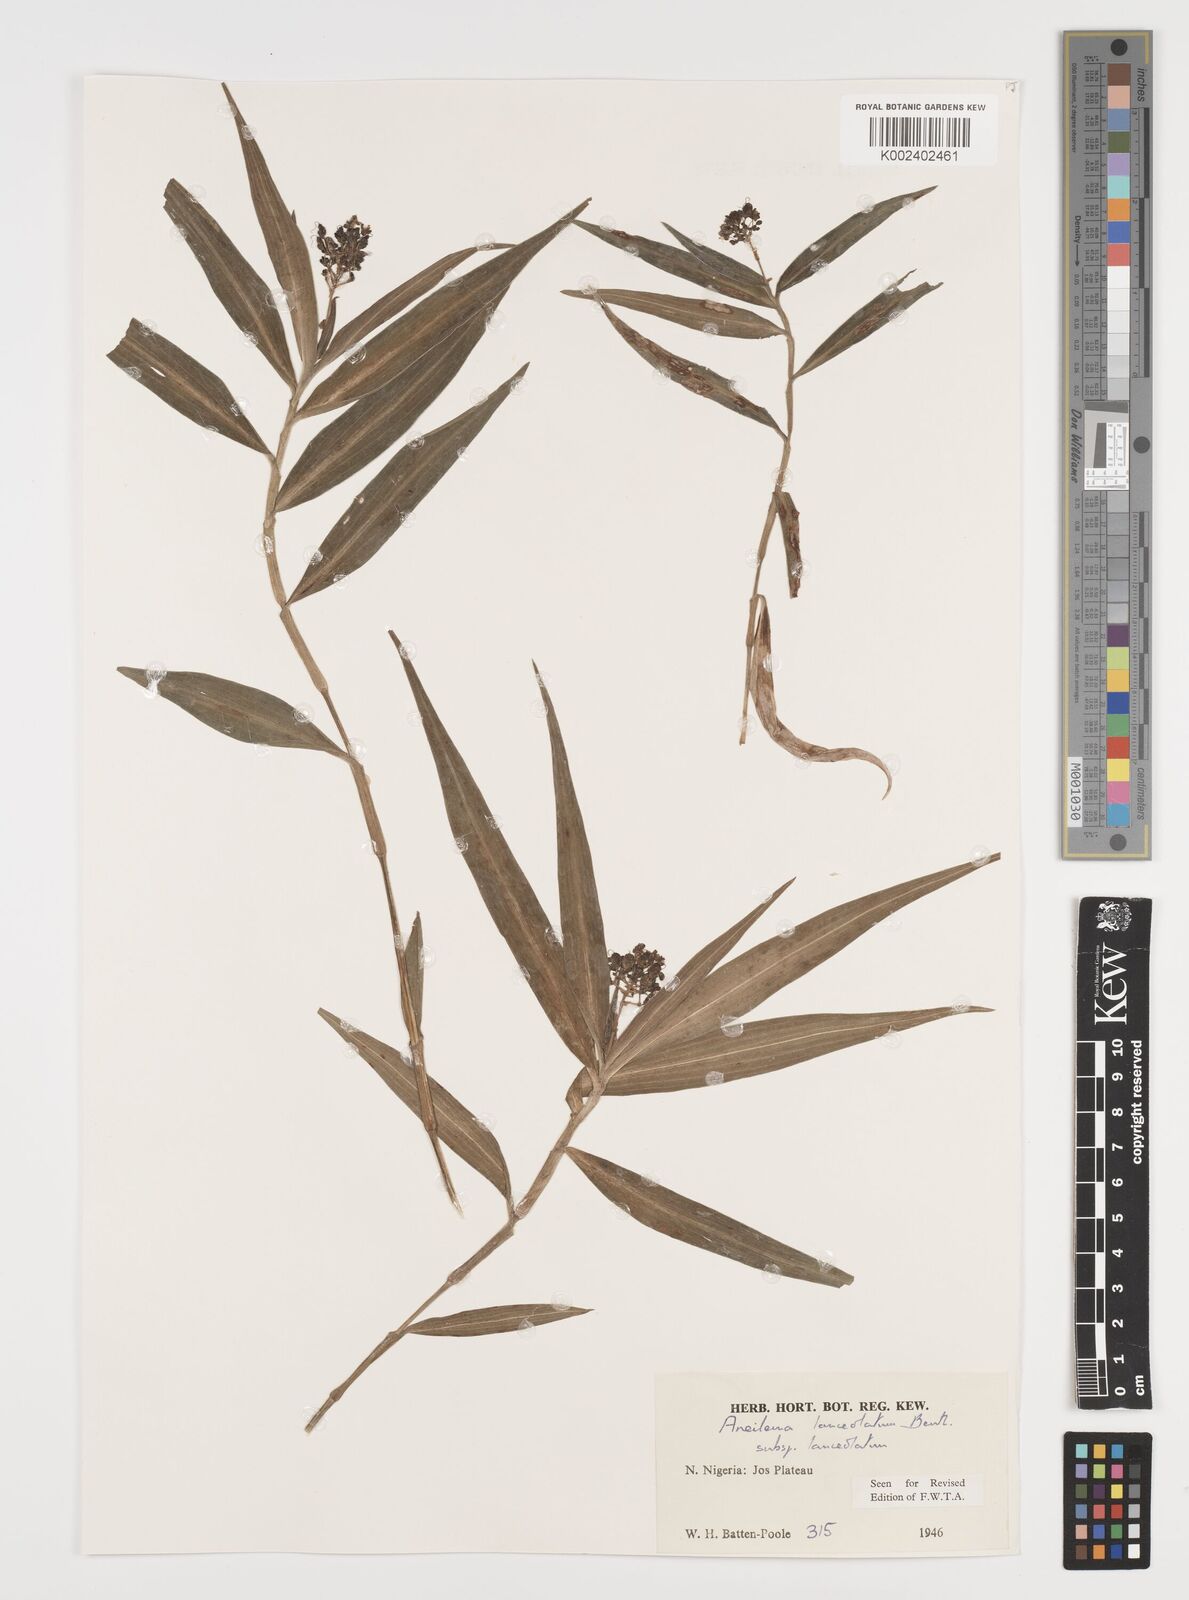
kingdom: Plantae
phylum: Tracheophyta
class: Liliopsida
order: Commelinales
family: Commelinaceae
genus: Aneilema
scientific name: Aneilema lanceolatum
